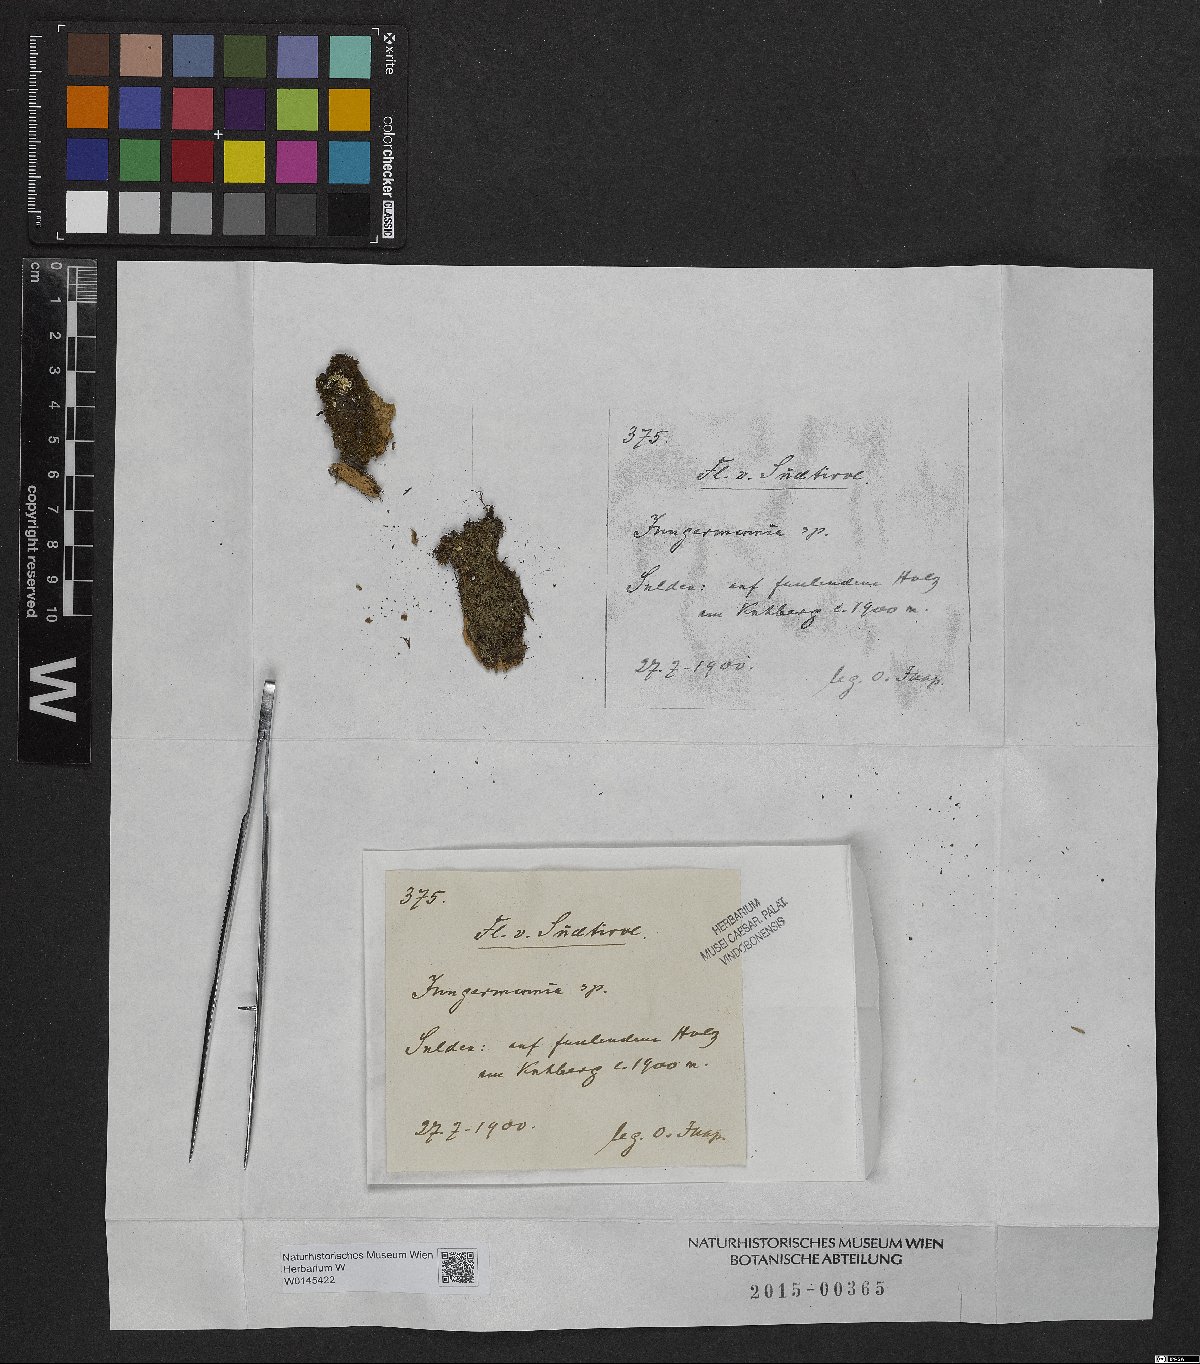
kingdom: Plantae
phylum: Marchantiophyta
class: Jungermanniopsida
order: Jungermanniales
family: Jungermanniaceae
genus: Jungermannia
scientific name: Jungermannia
